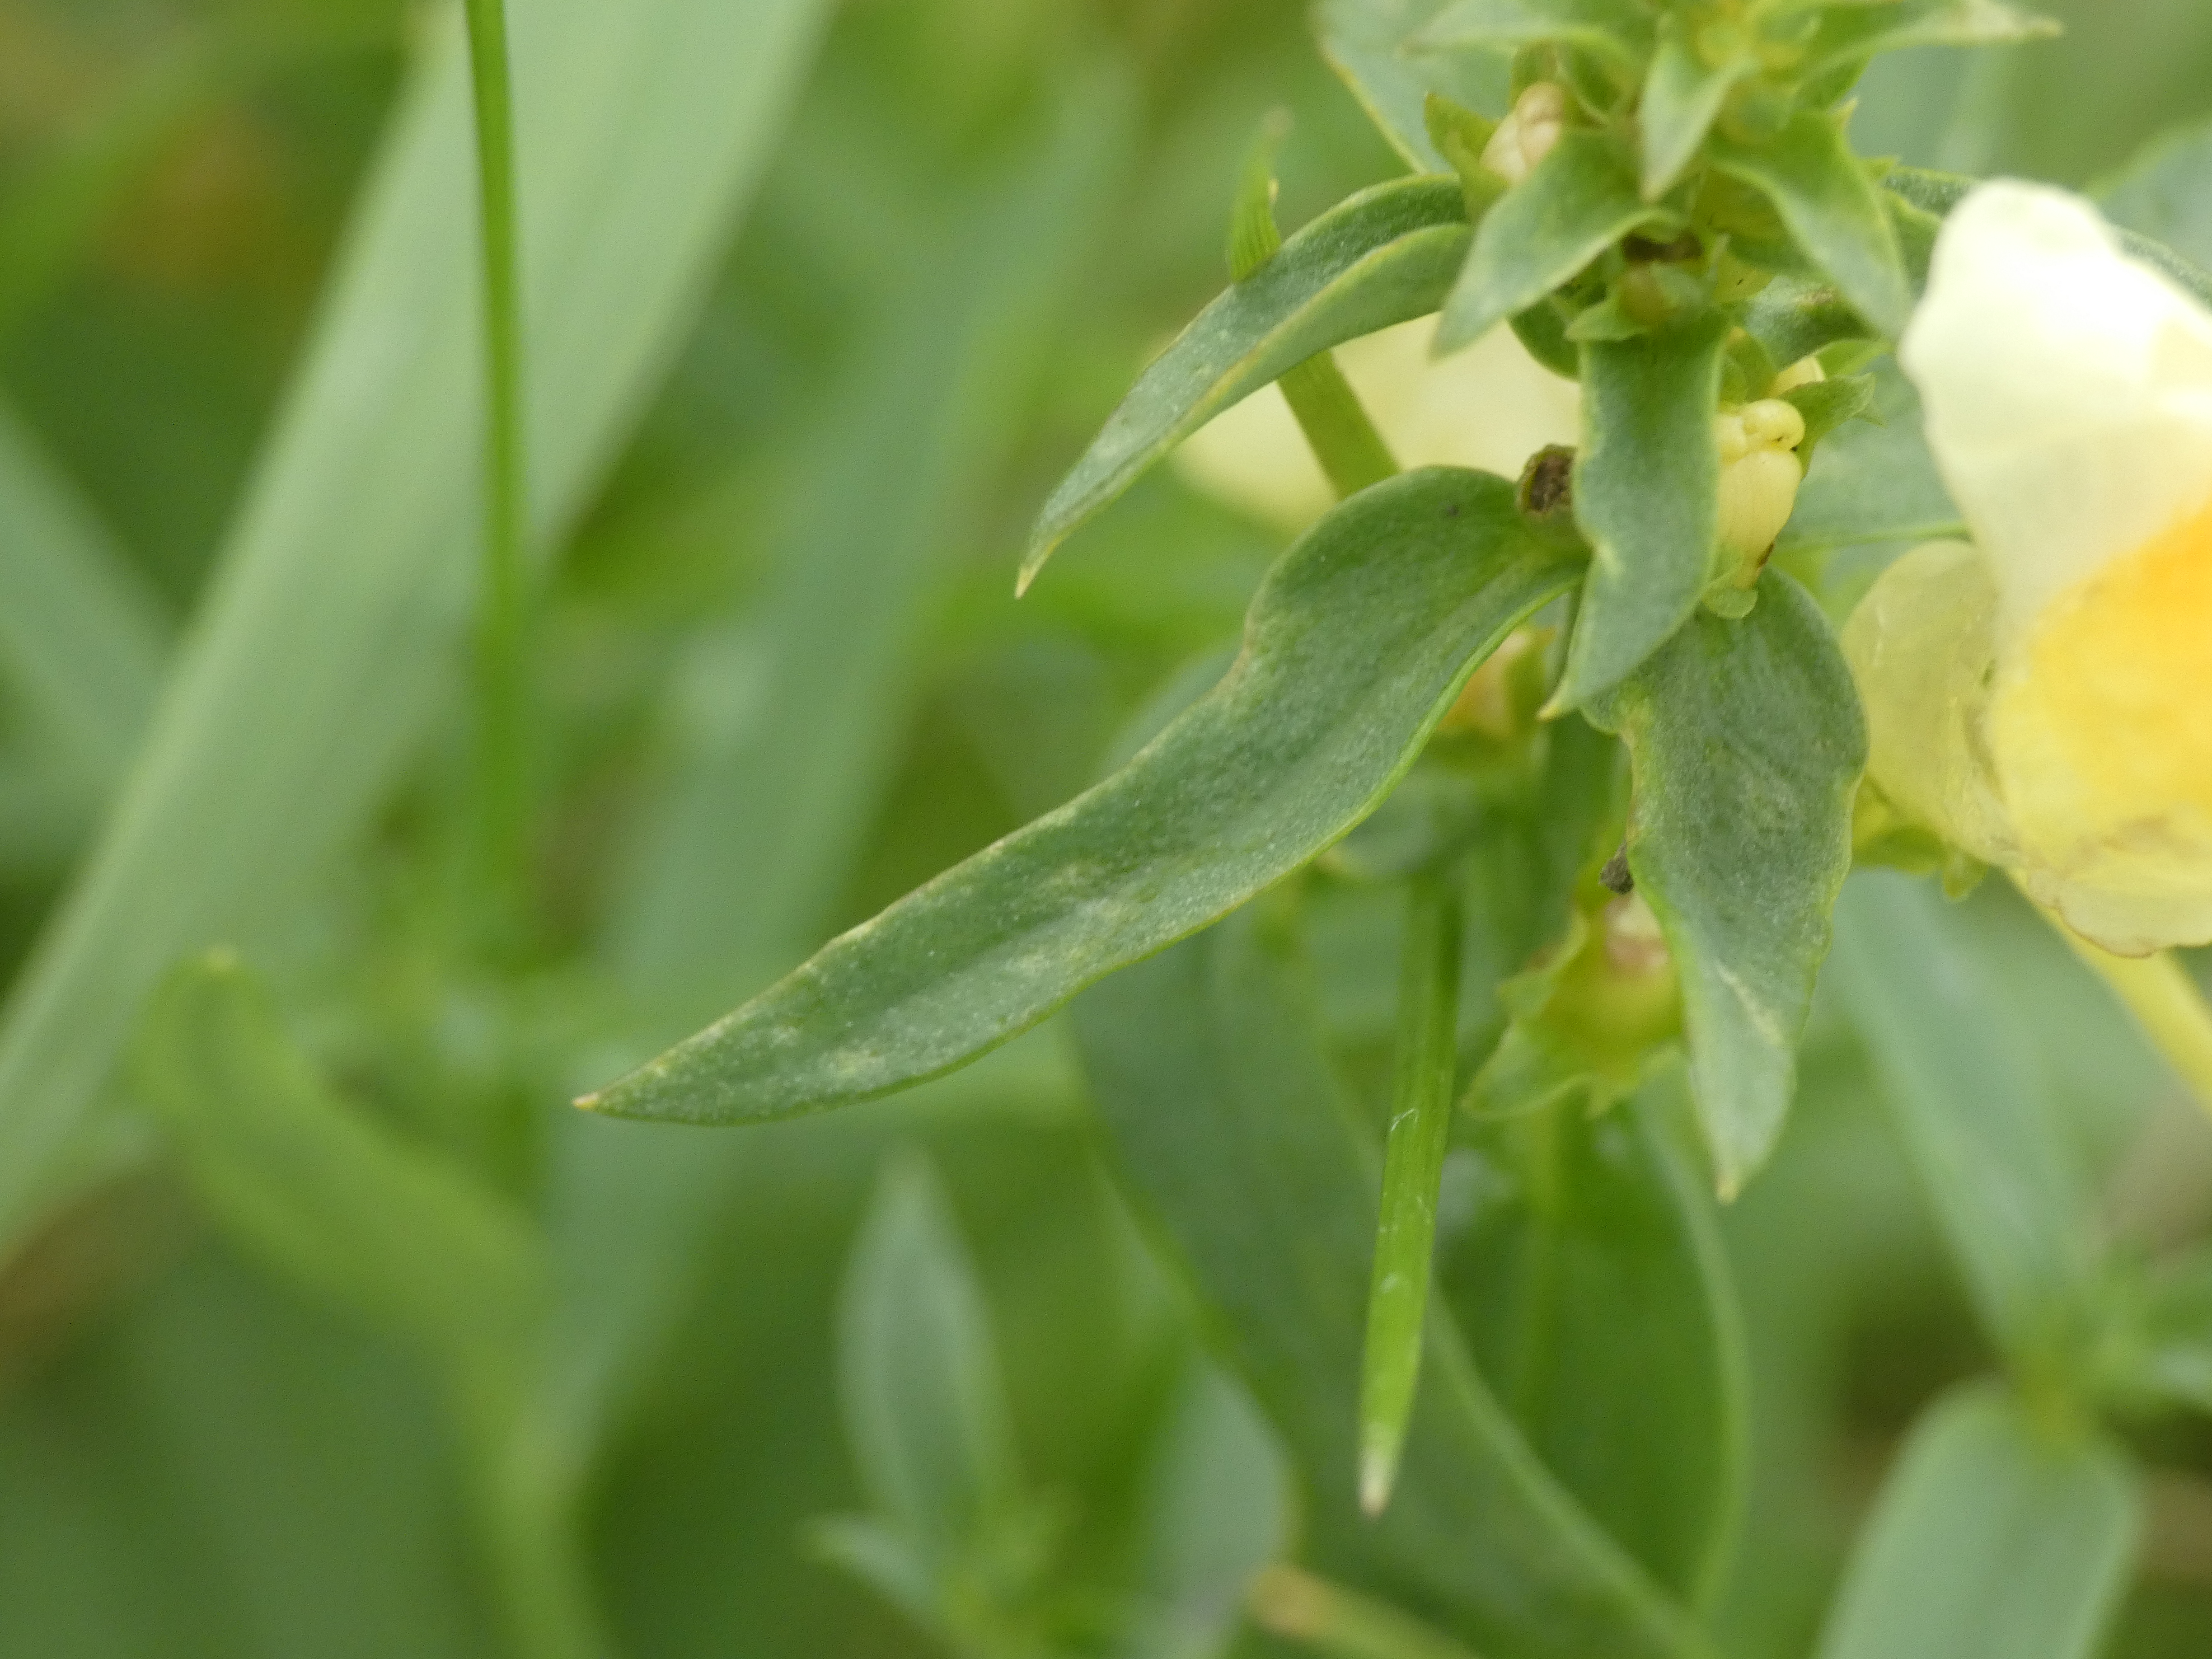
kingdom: Plantae
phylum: Tracheophyta
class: Magnoliopsida
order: Lamiales
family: Plantaginaceae
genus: Linaria
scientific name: Linaria vulgaris
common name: Almindelig torskemund
